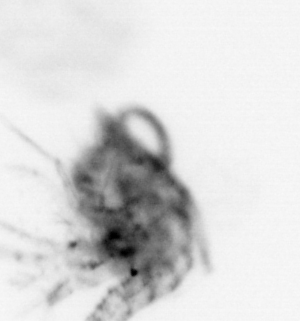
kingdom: Animalia
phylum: Arthropoda
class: Malacostraca
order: Decapoda
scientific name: Decapoda
